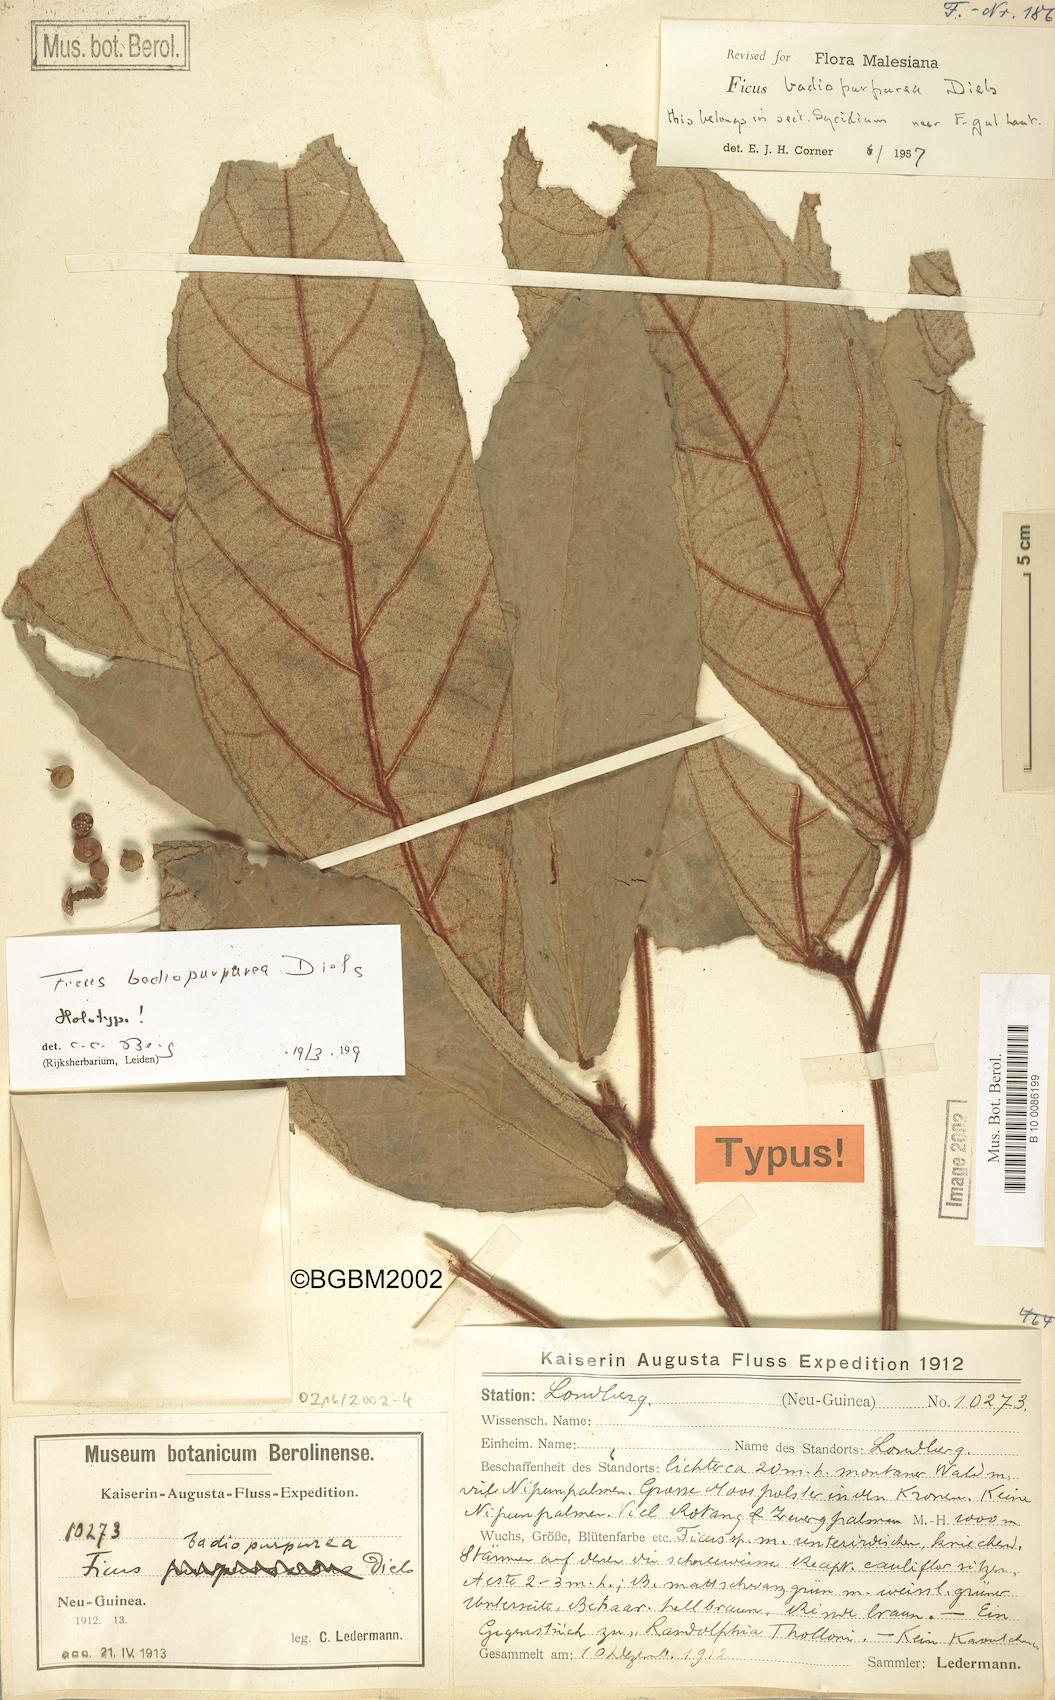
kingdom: Plantae
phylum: Tracheophyta
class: Magnoliopsida
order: Rosales
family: Moraceae
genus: Ficus
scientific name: Ficus badiopurpurea
